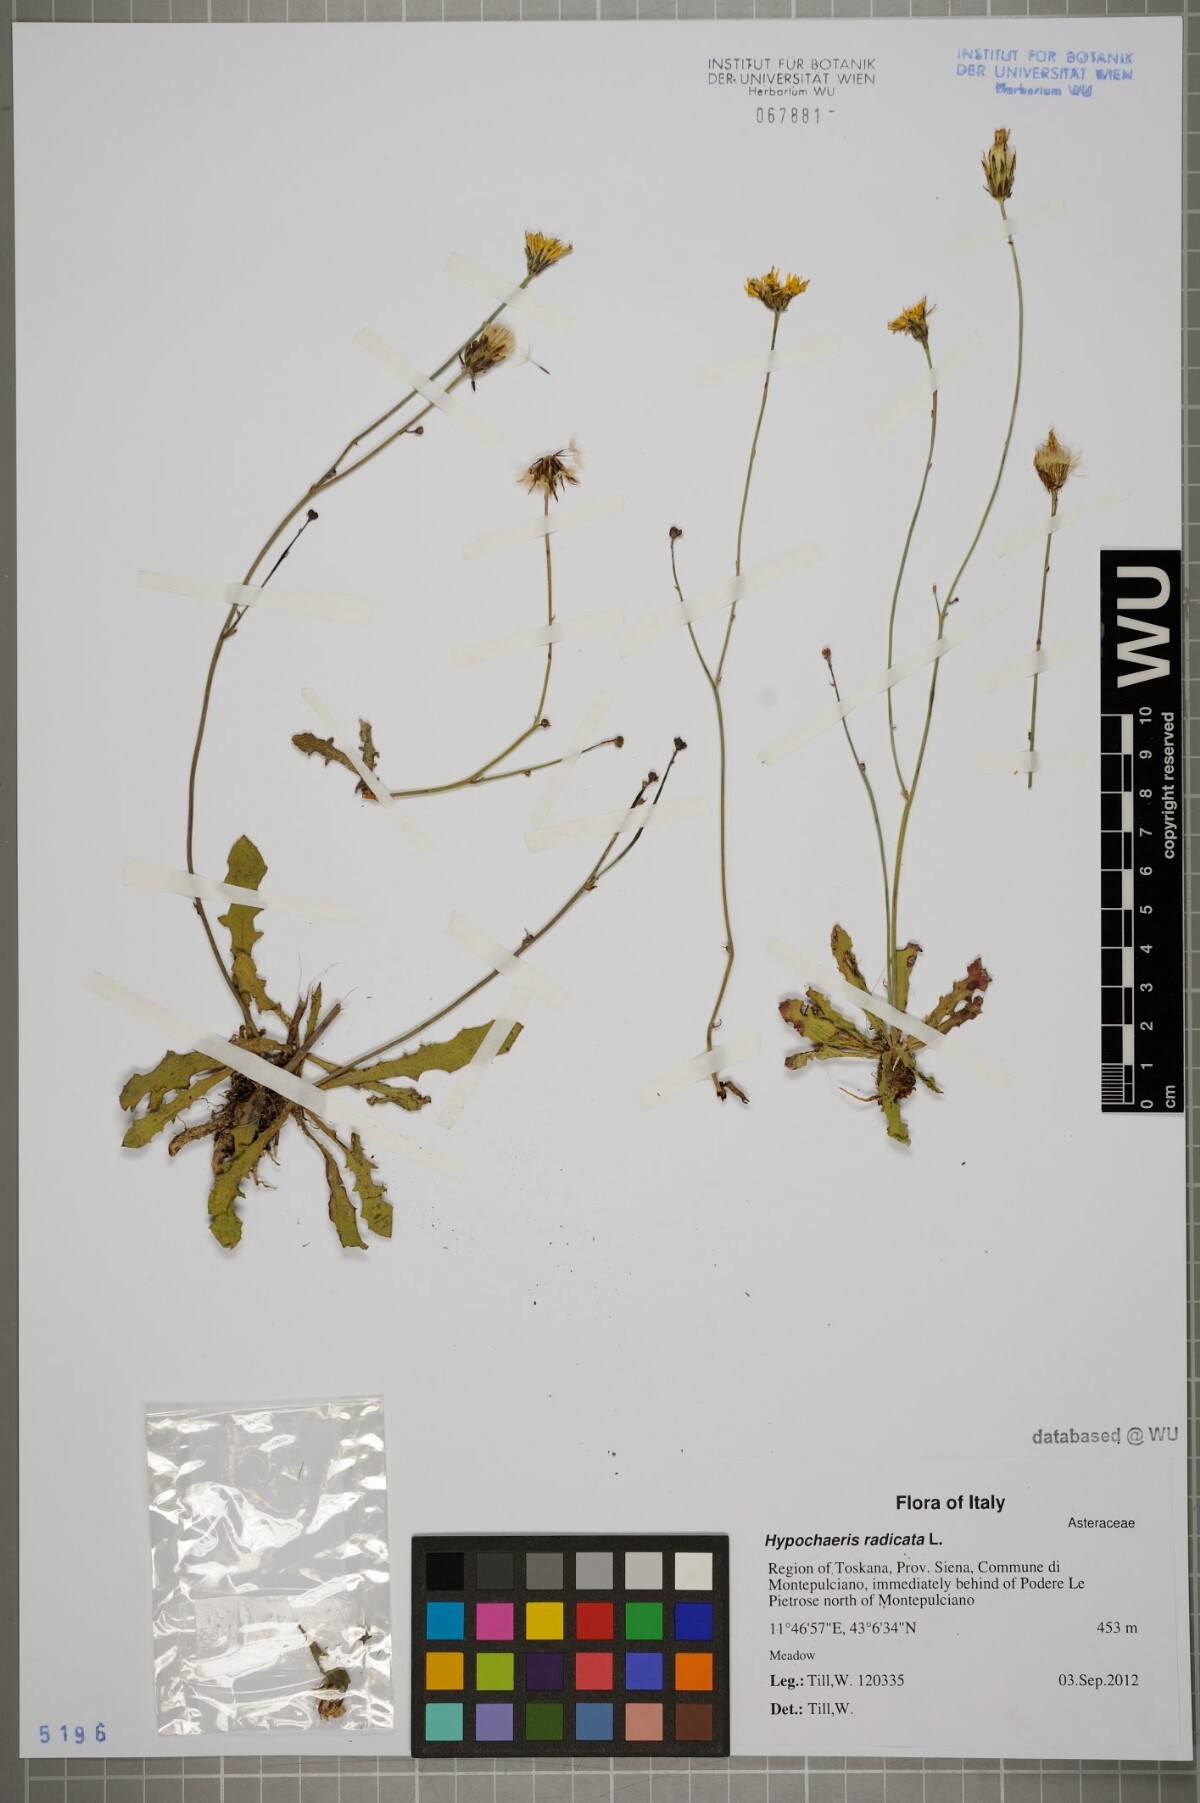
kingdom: Plantae
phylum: Tracheophyta
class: Magnoliopsida
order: Asterales
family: Asteraceae
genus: Hypochaeris
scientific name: Hypochaeris radicata
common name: Flatweed
